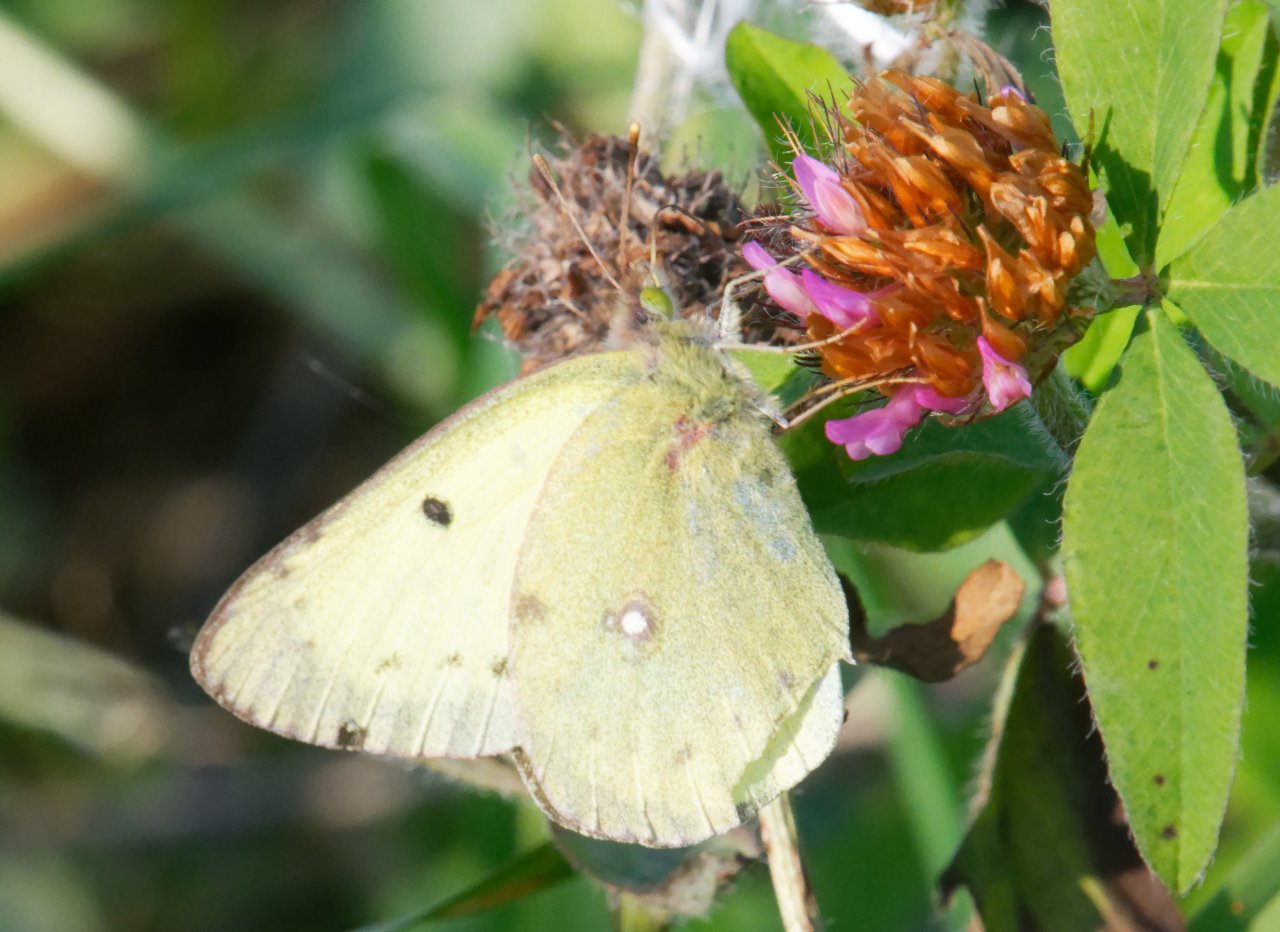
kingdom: Animalia
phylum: Arthropoda
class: Insecta
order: Lepidoptera
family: Pieridae
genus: Colias
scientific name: Colias philodice
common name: Clouded Sulphur
